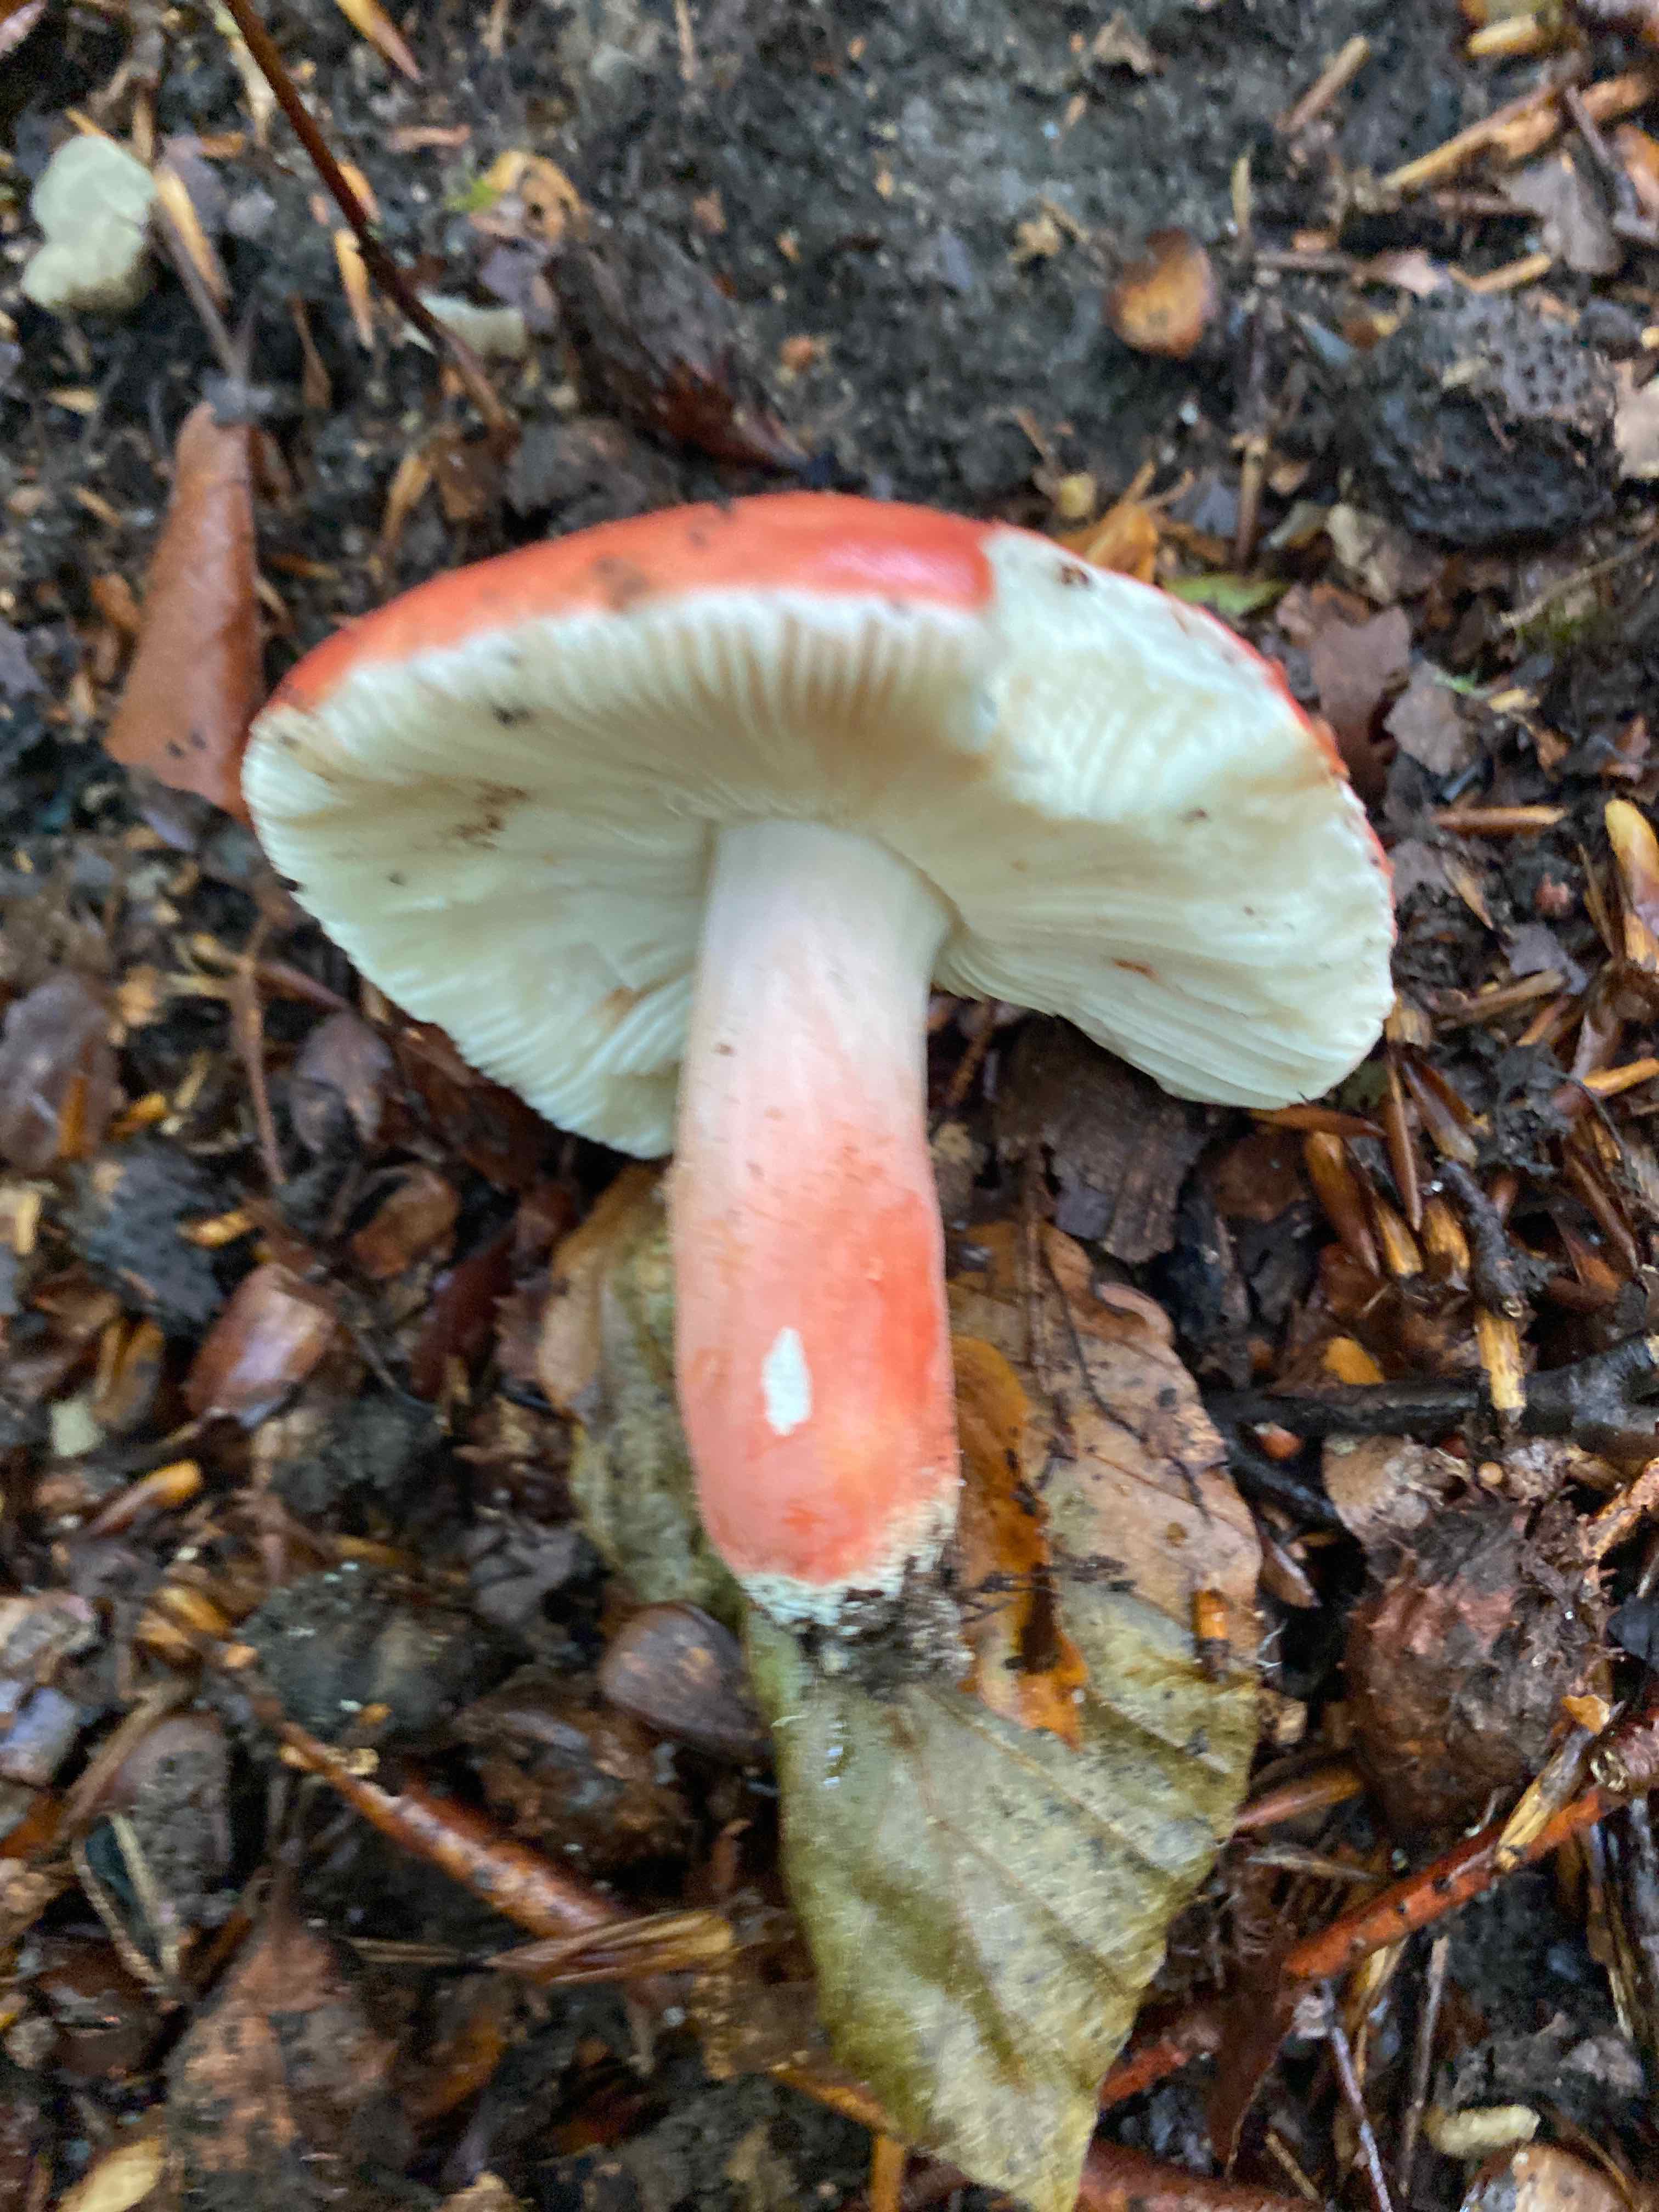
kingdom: Fungi
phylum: Basidiomycota
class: Agaricomycetes
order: Russulales
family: Russulaceae
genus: Russula
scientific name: Russula rosea
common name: fastkødet skørhat
